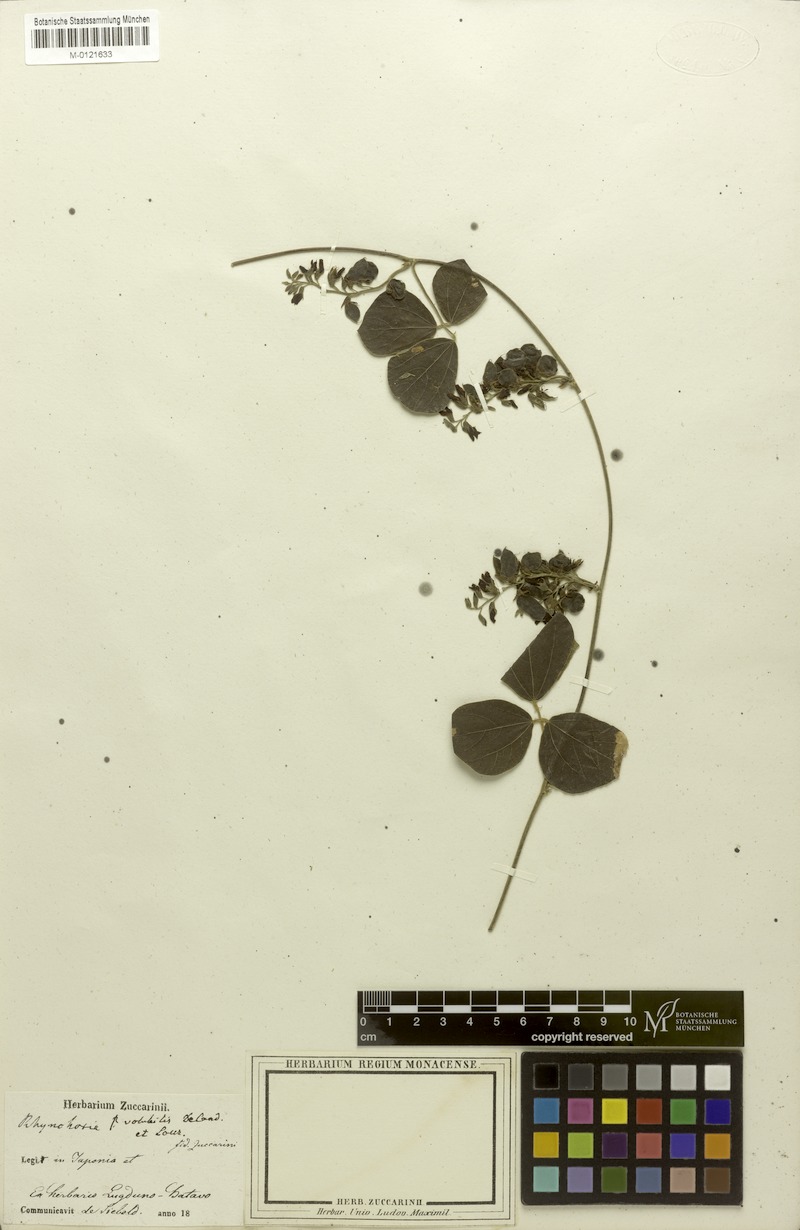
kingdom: Plantae
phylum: Tracheophyta
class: Magnoliopsida
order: Fabales
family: Fabaceae
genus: Rhynchosia
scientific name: Rhynchosia volubilis
